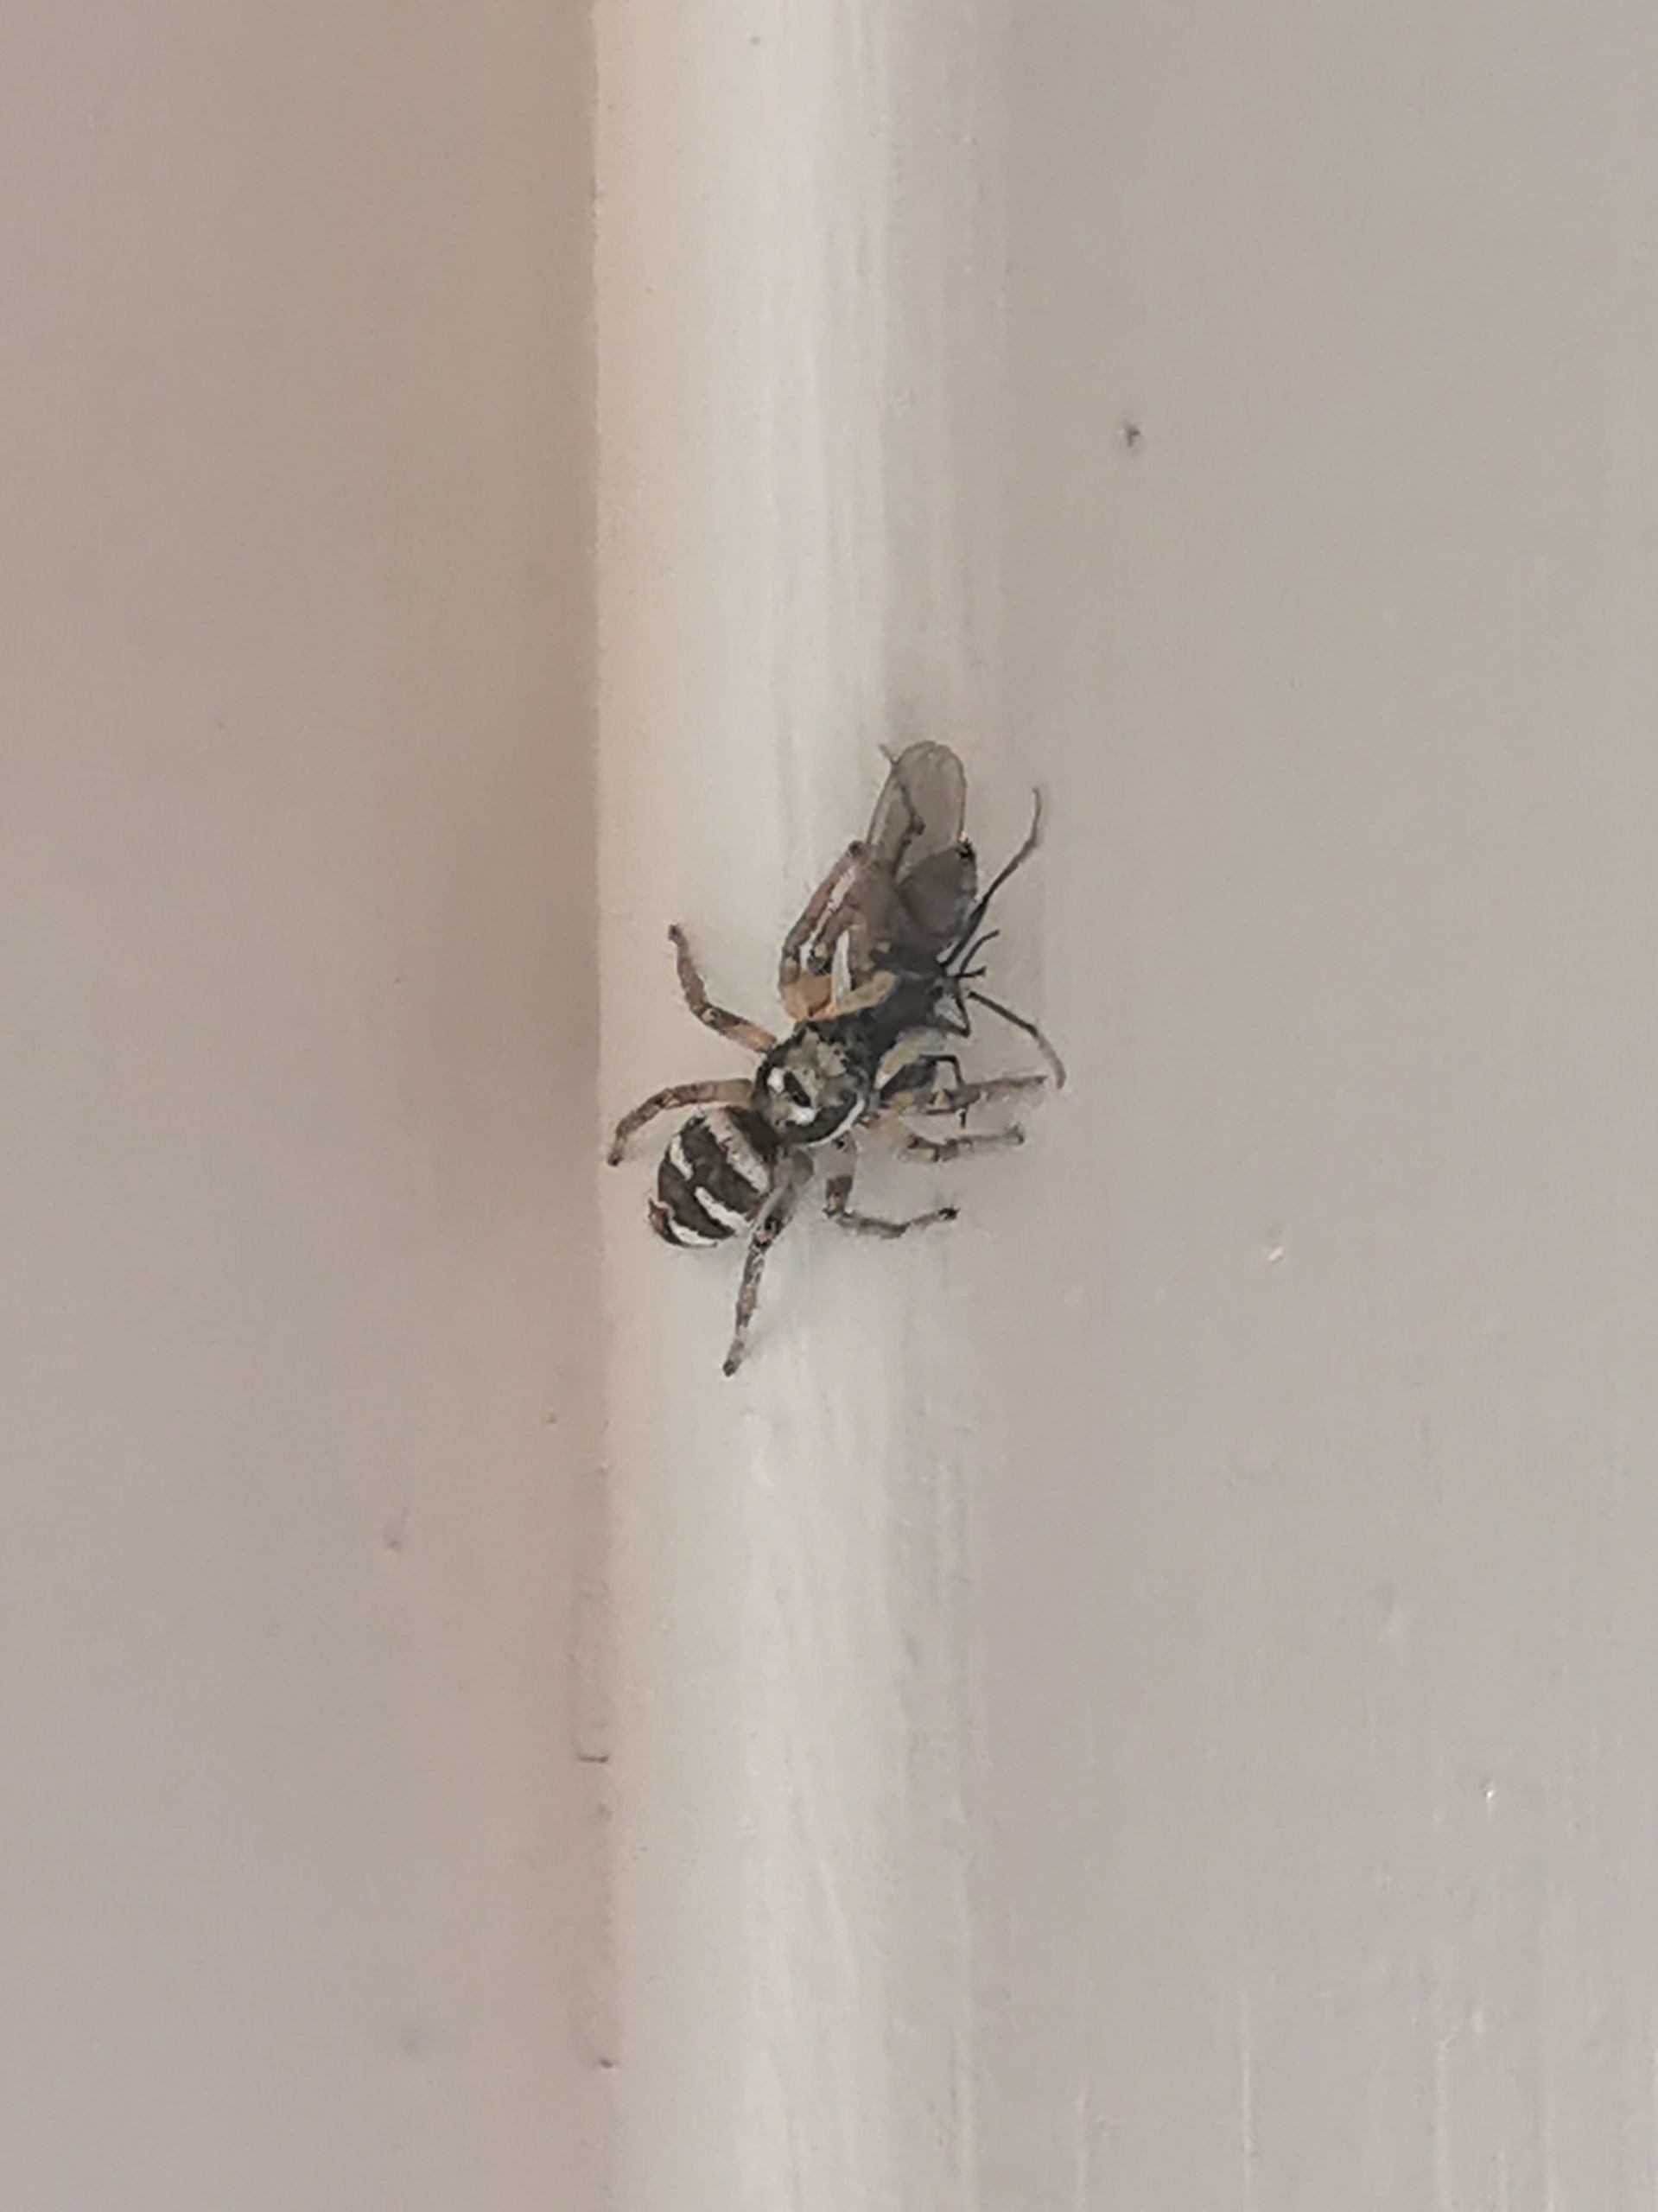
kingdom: Animalia
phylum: Arthropoda
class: Arachnida
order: Araneae
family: Salticidae
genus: Salticus
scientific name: Salticus scenicus
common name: Almindelig zebraedderkop
